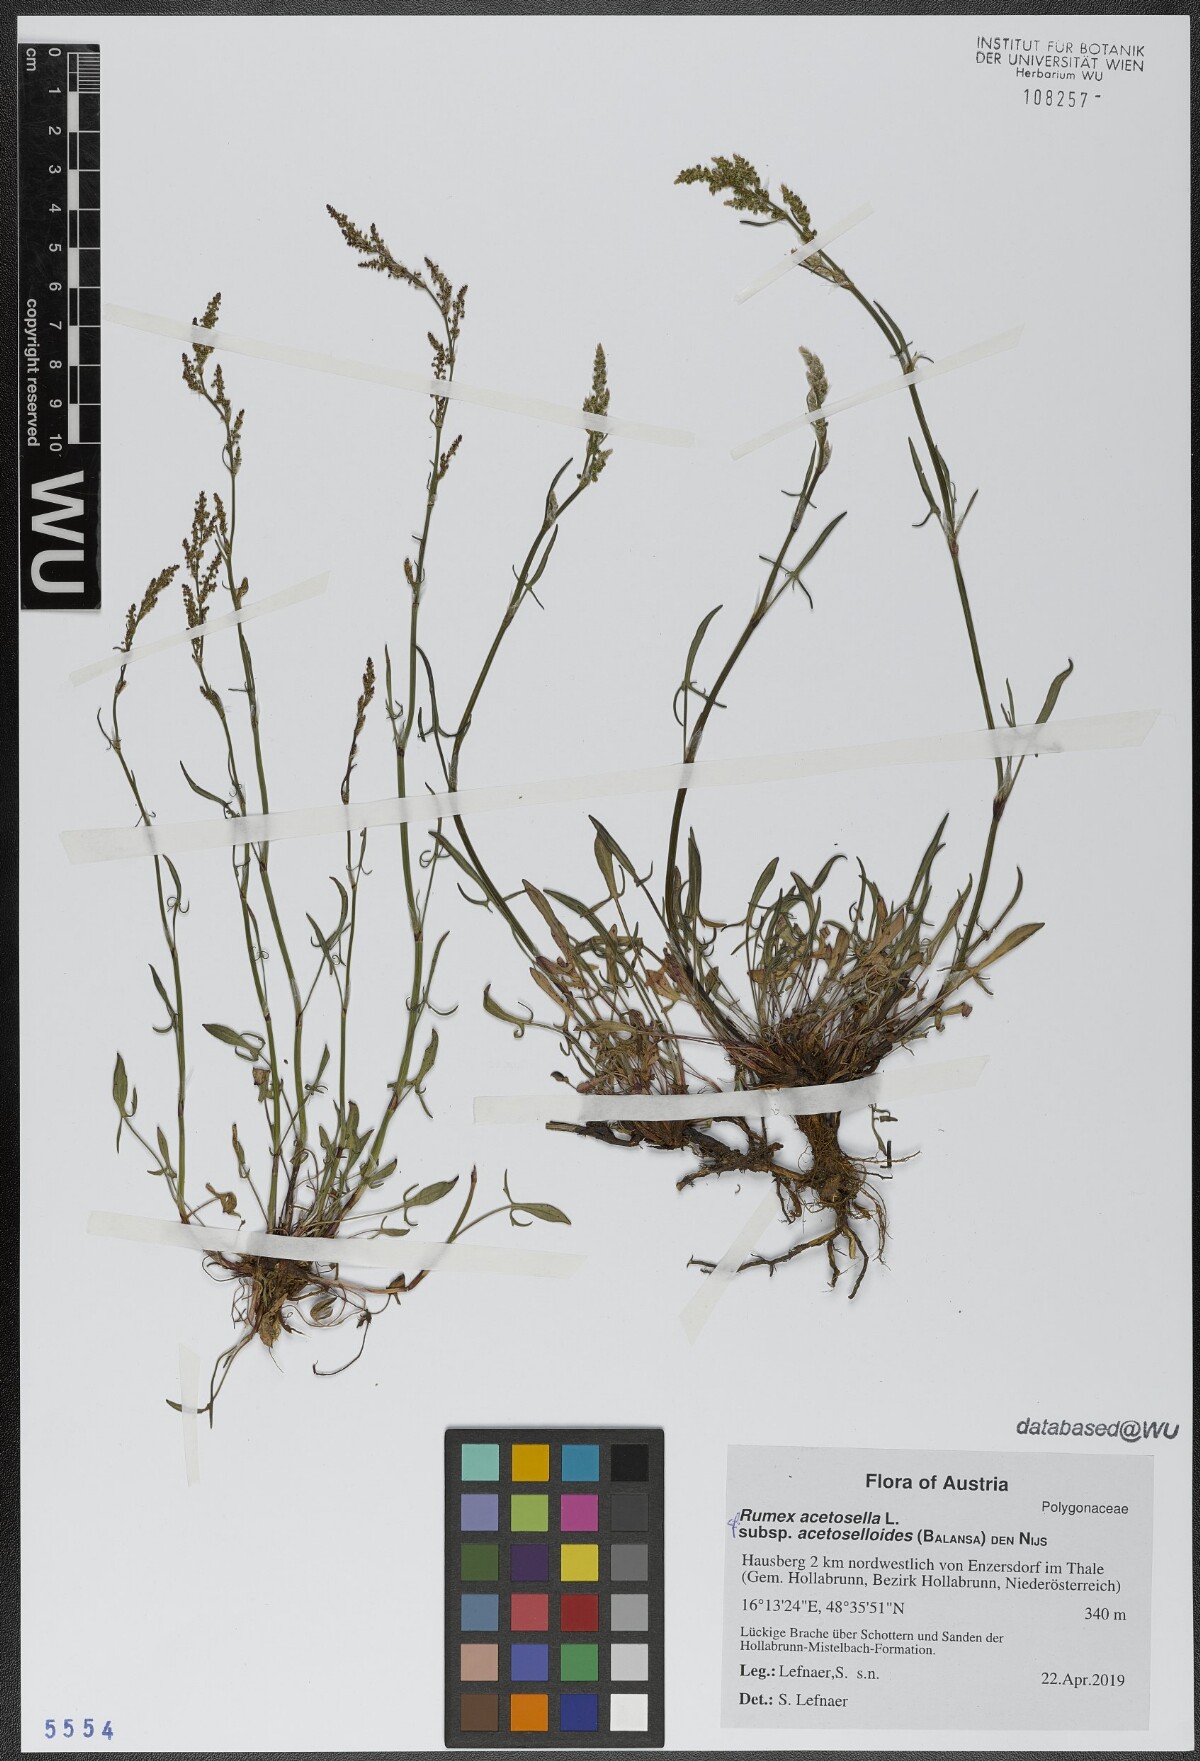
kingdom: Plantae
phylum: Tracheophyta
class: Magnoliopsida
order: Caryophyllales
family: Polygonaceae
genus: Rumex
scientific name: Rumex acetosella
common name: Common sheep sorrel
